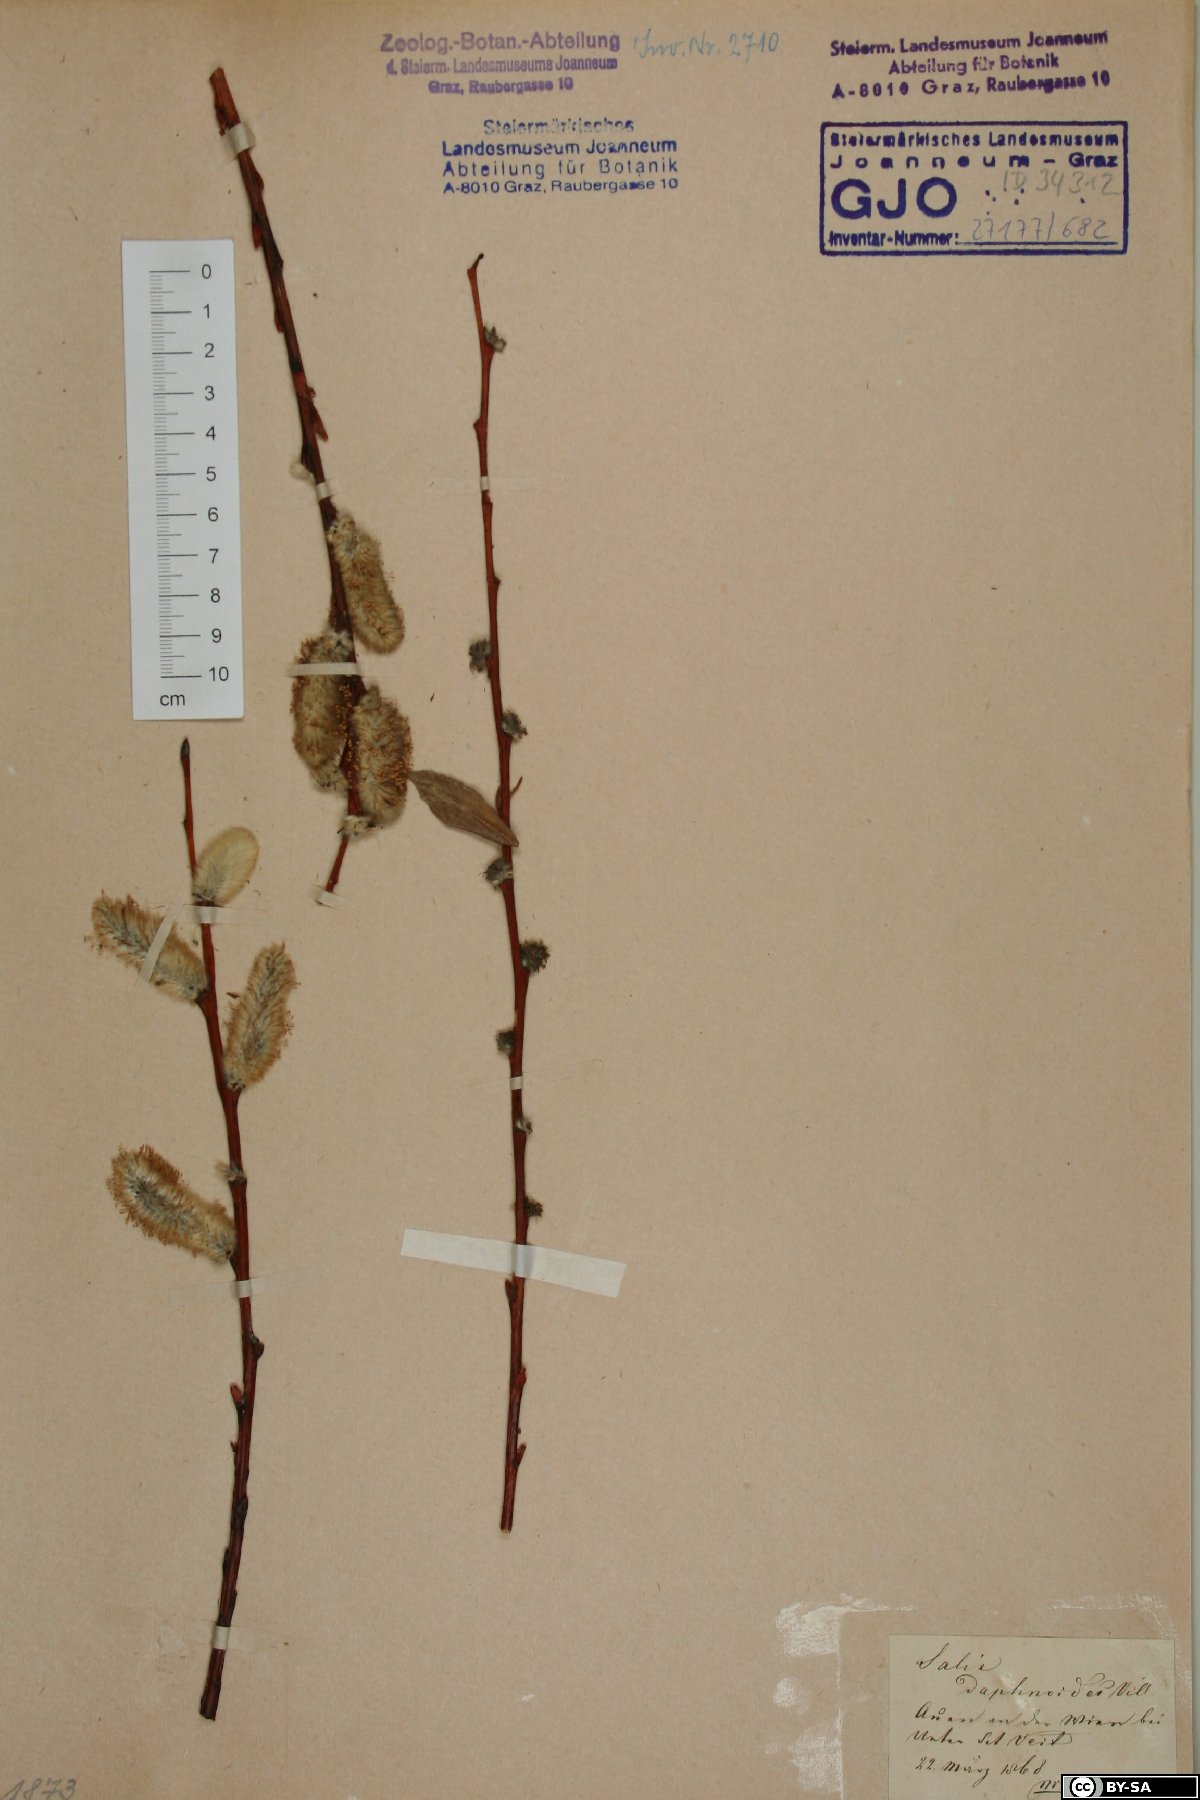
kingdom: Plantae
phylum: Tracheophyta
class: Magnoliopsida
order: Malpighiales
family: Salicaceae
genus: Salix
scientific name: Salix daphnoides
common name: European violet-willow
